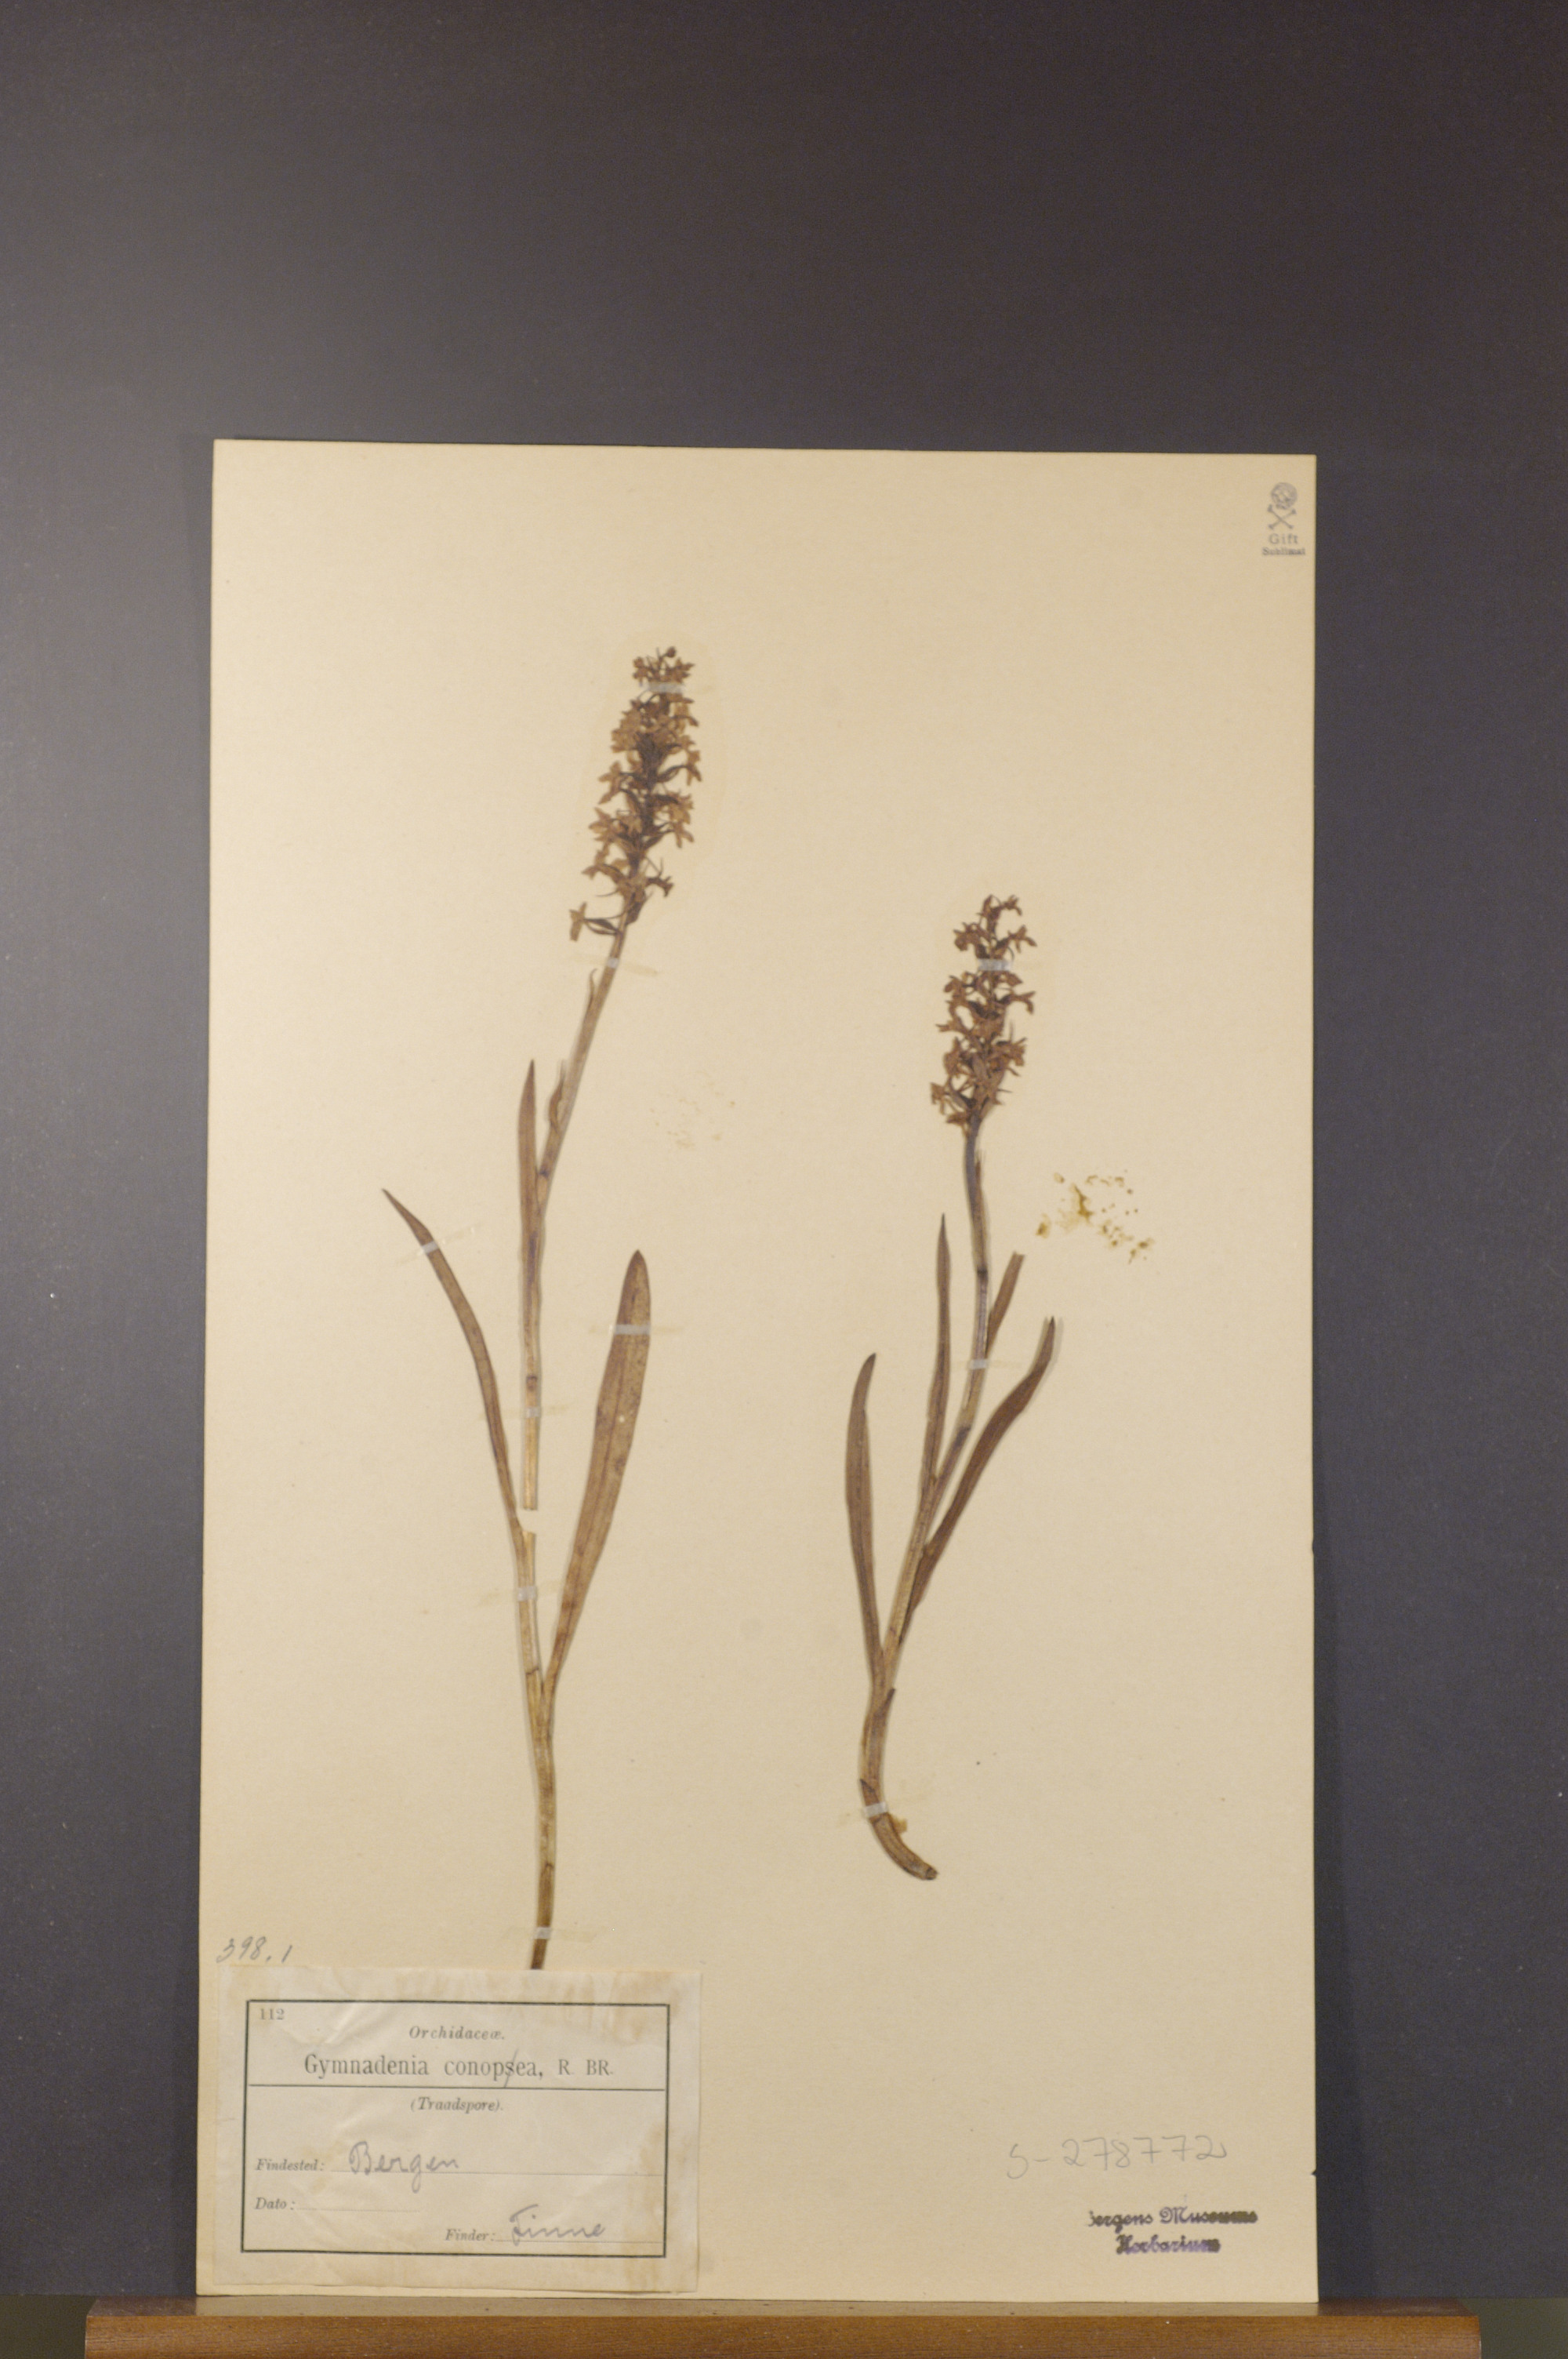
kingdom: Plantae
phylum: Tracheophyta
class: Liliopsida
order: Asparagales
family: Orchidaceae
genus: Gymnadenia
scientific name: Gymnadenia conopsea
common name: Fragrant orchid
